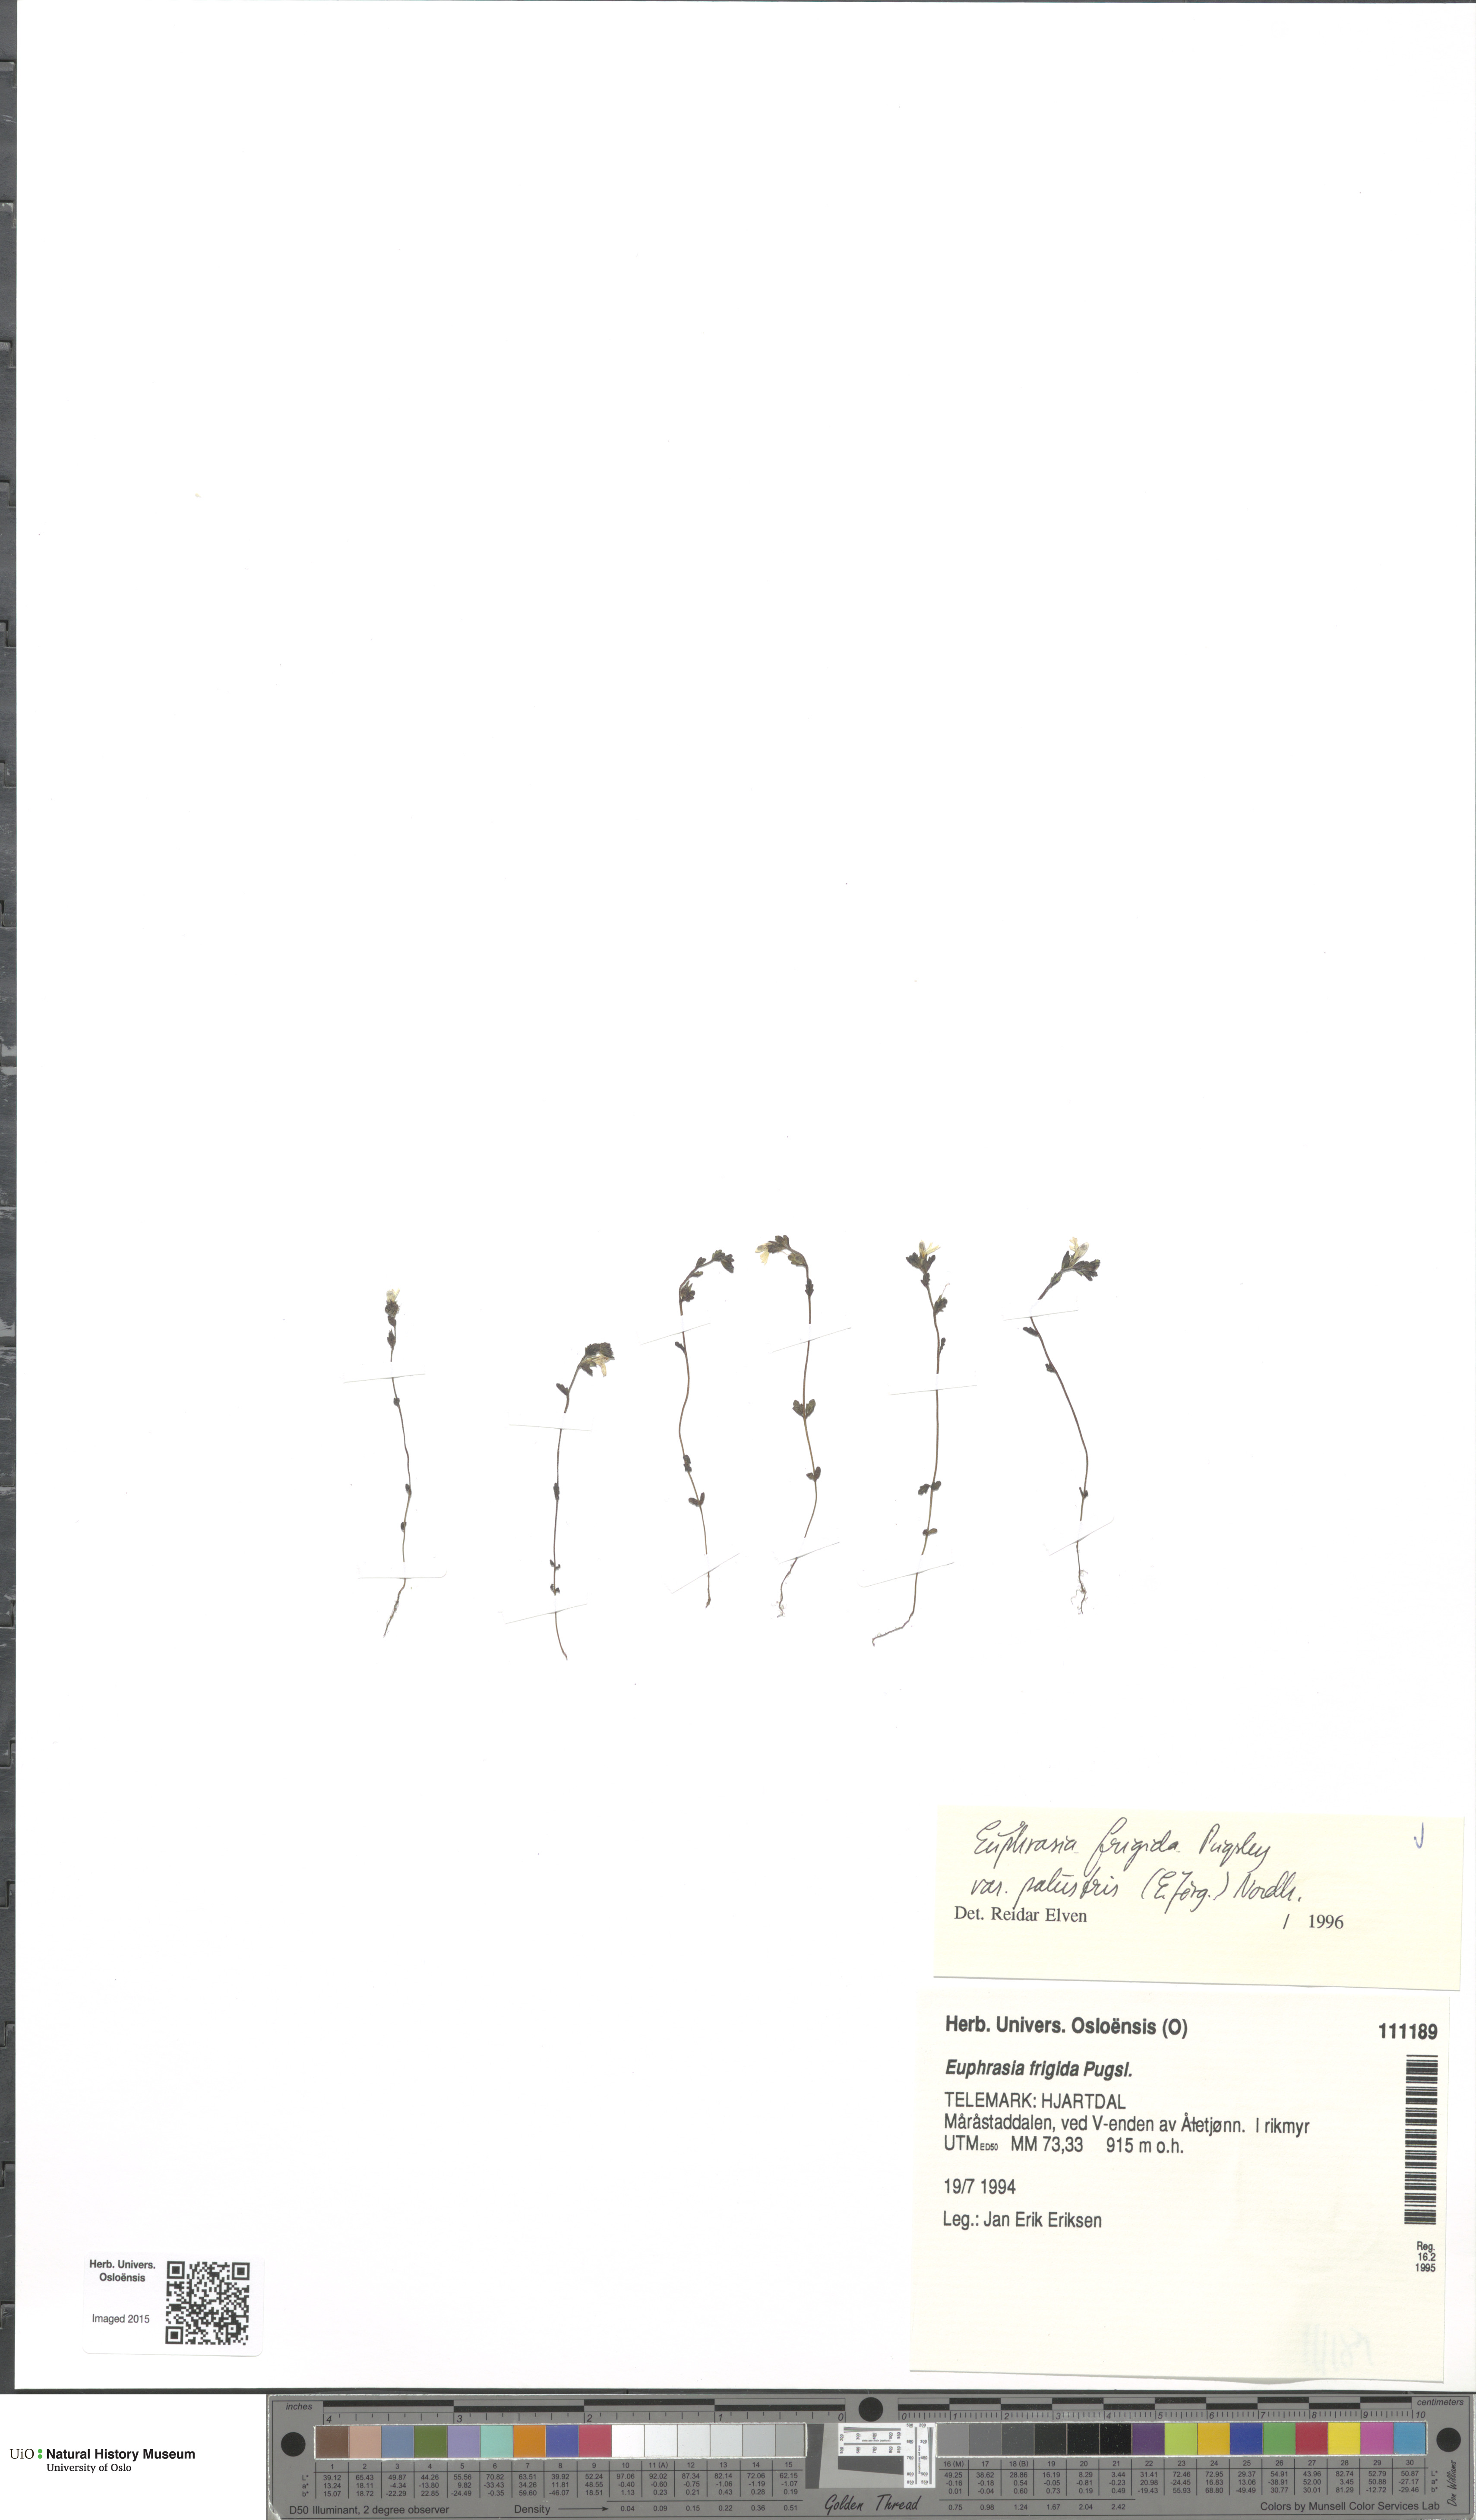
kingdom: Plantae
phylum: Tracheophyta
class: Magnoliopsida
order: Lamiales
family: Orobanchaceae
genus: Euphrasia
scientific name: Euphrasia wettsteinii
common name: Wettstein's eyebright
